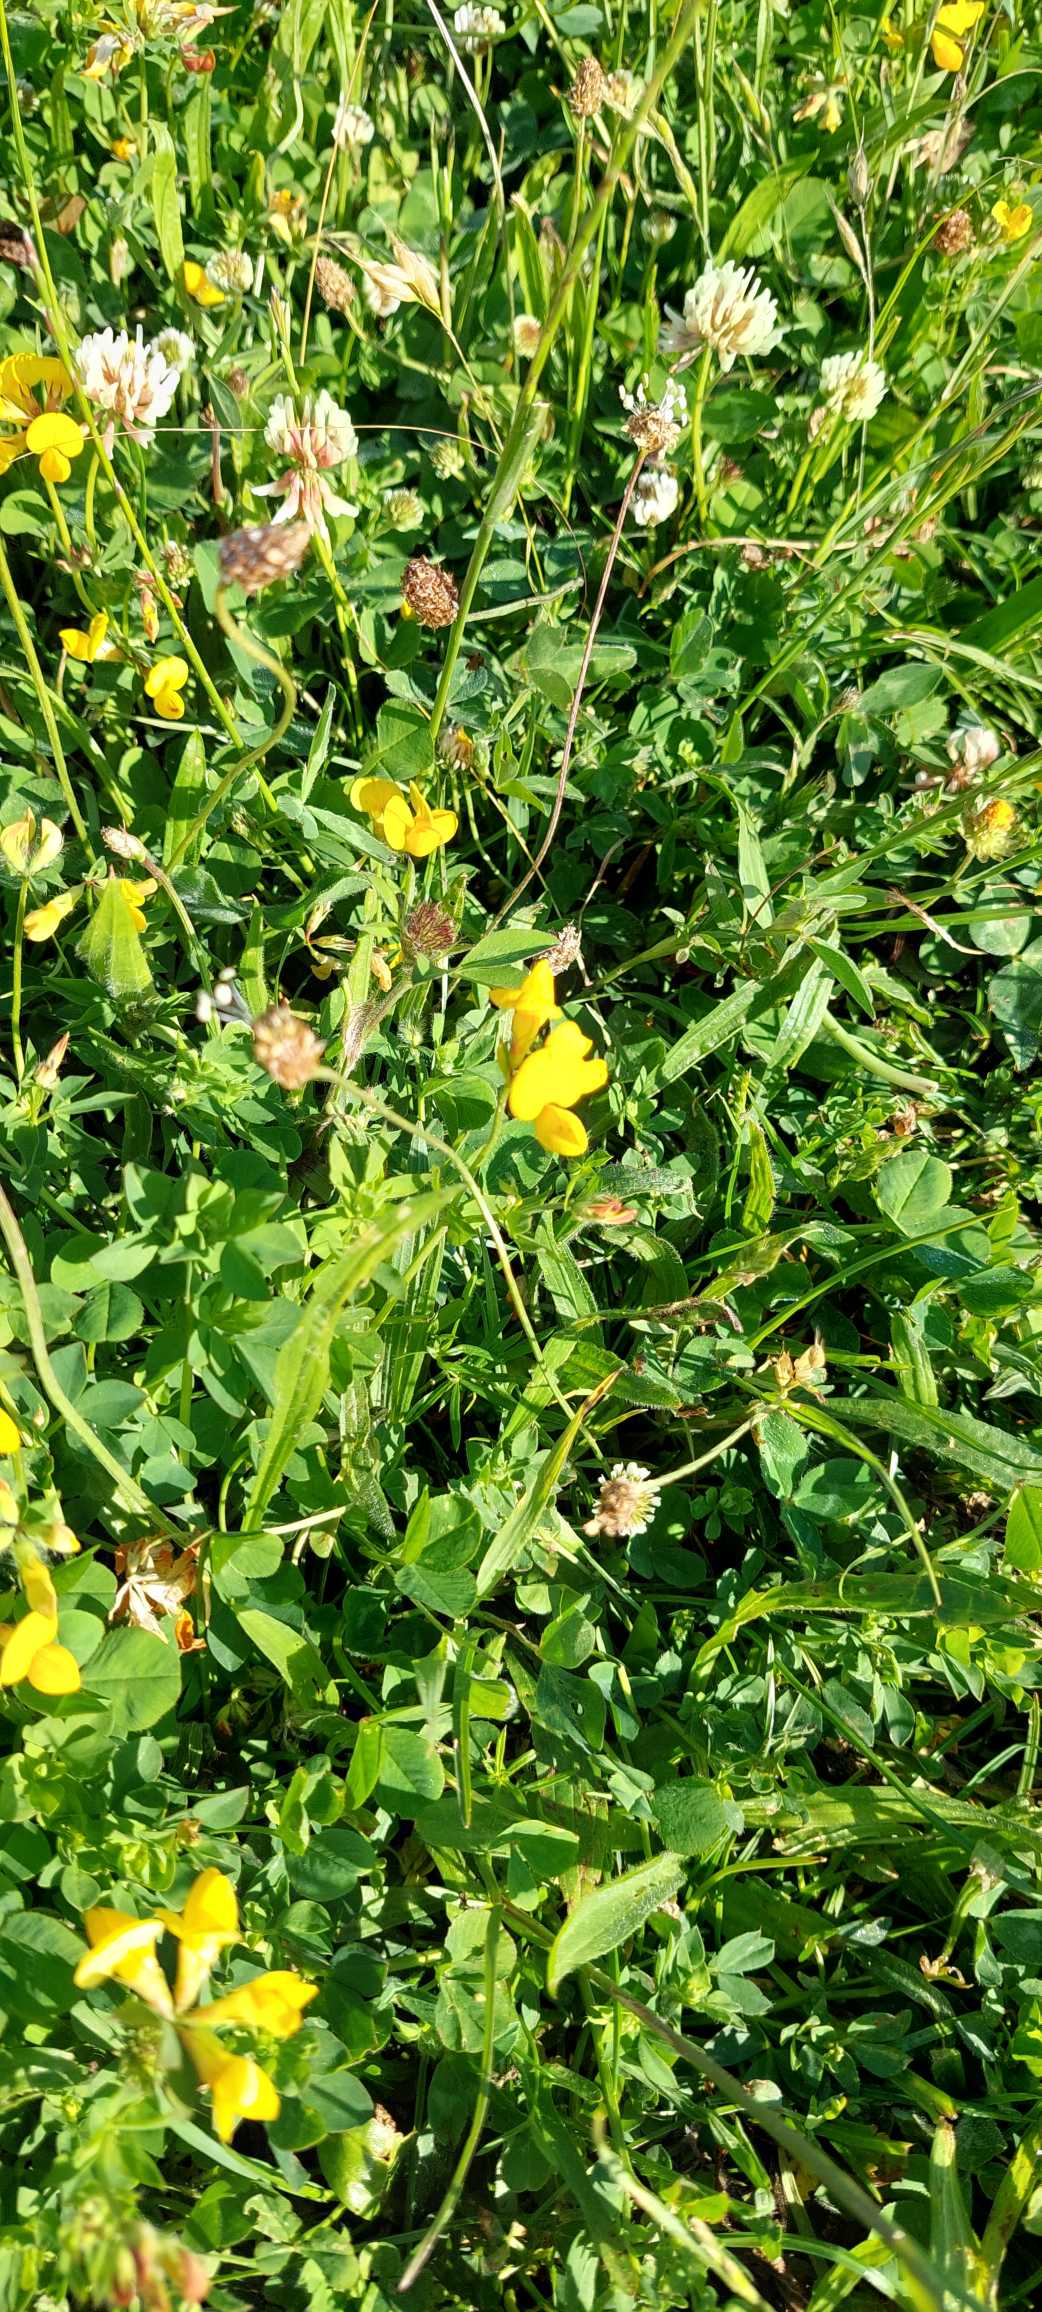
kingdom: Plantae
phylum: Tracheophyta
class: Magnoliopsida
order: Fabales
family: Fabaceae
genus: Lotus
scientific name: Lotus corniculatus
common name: Almindelig kællingetand
